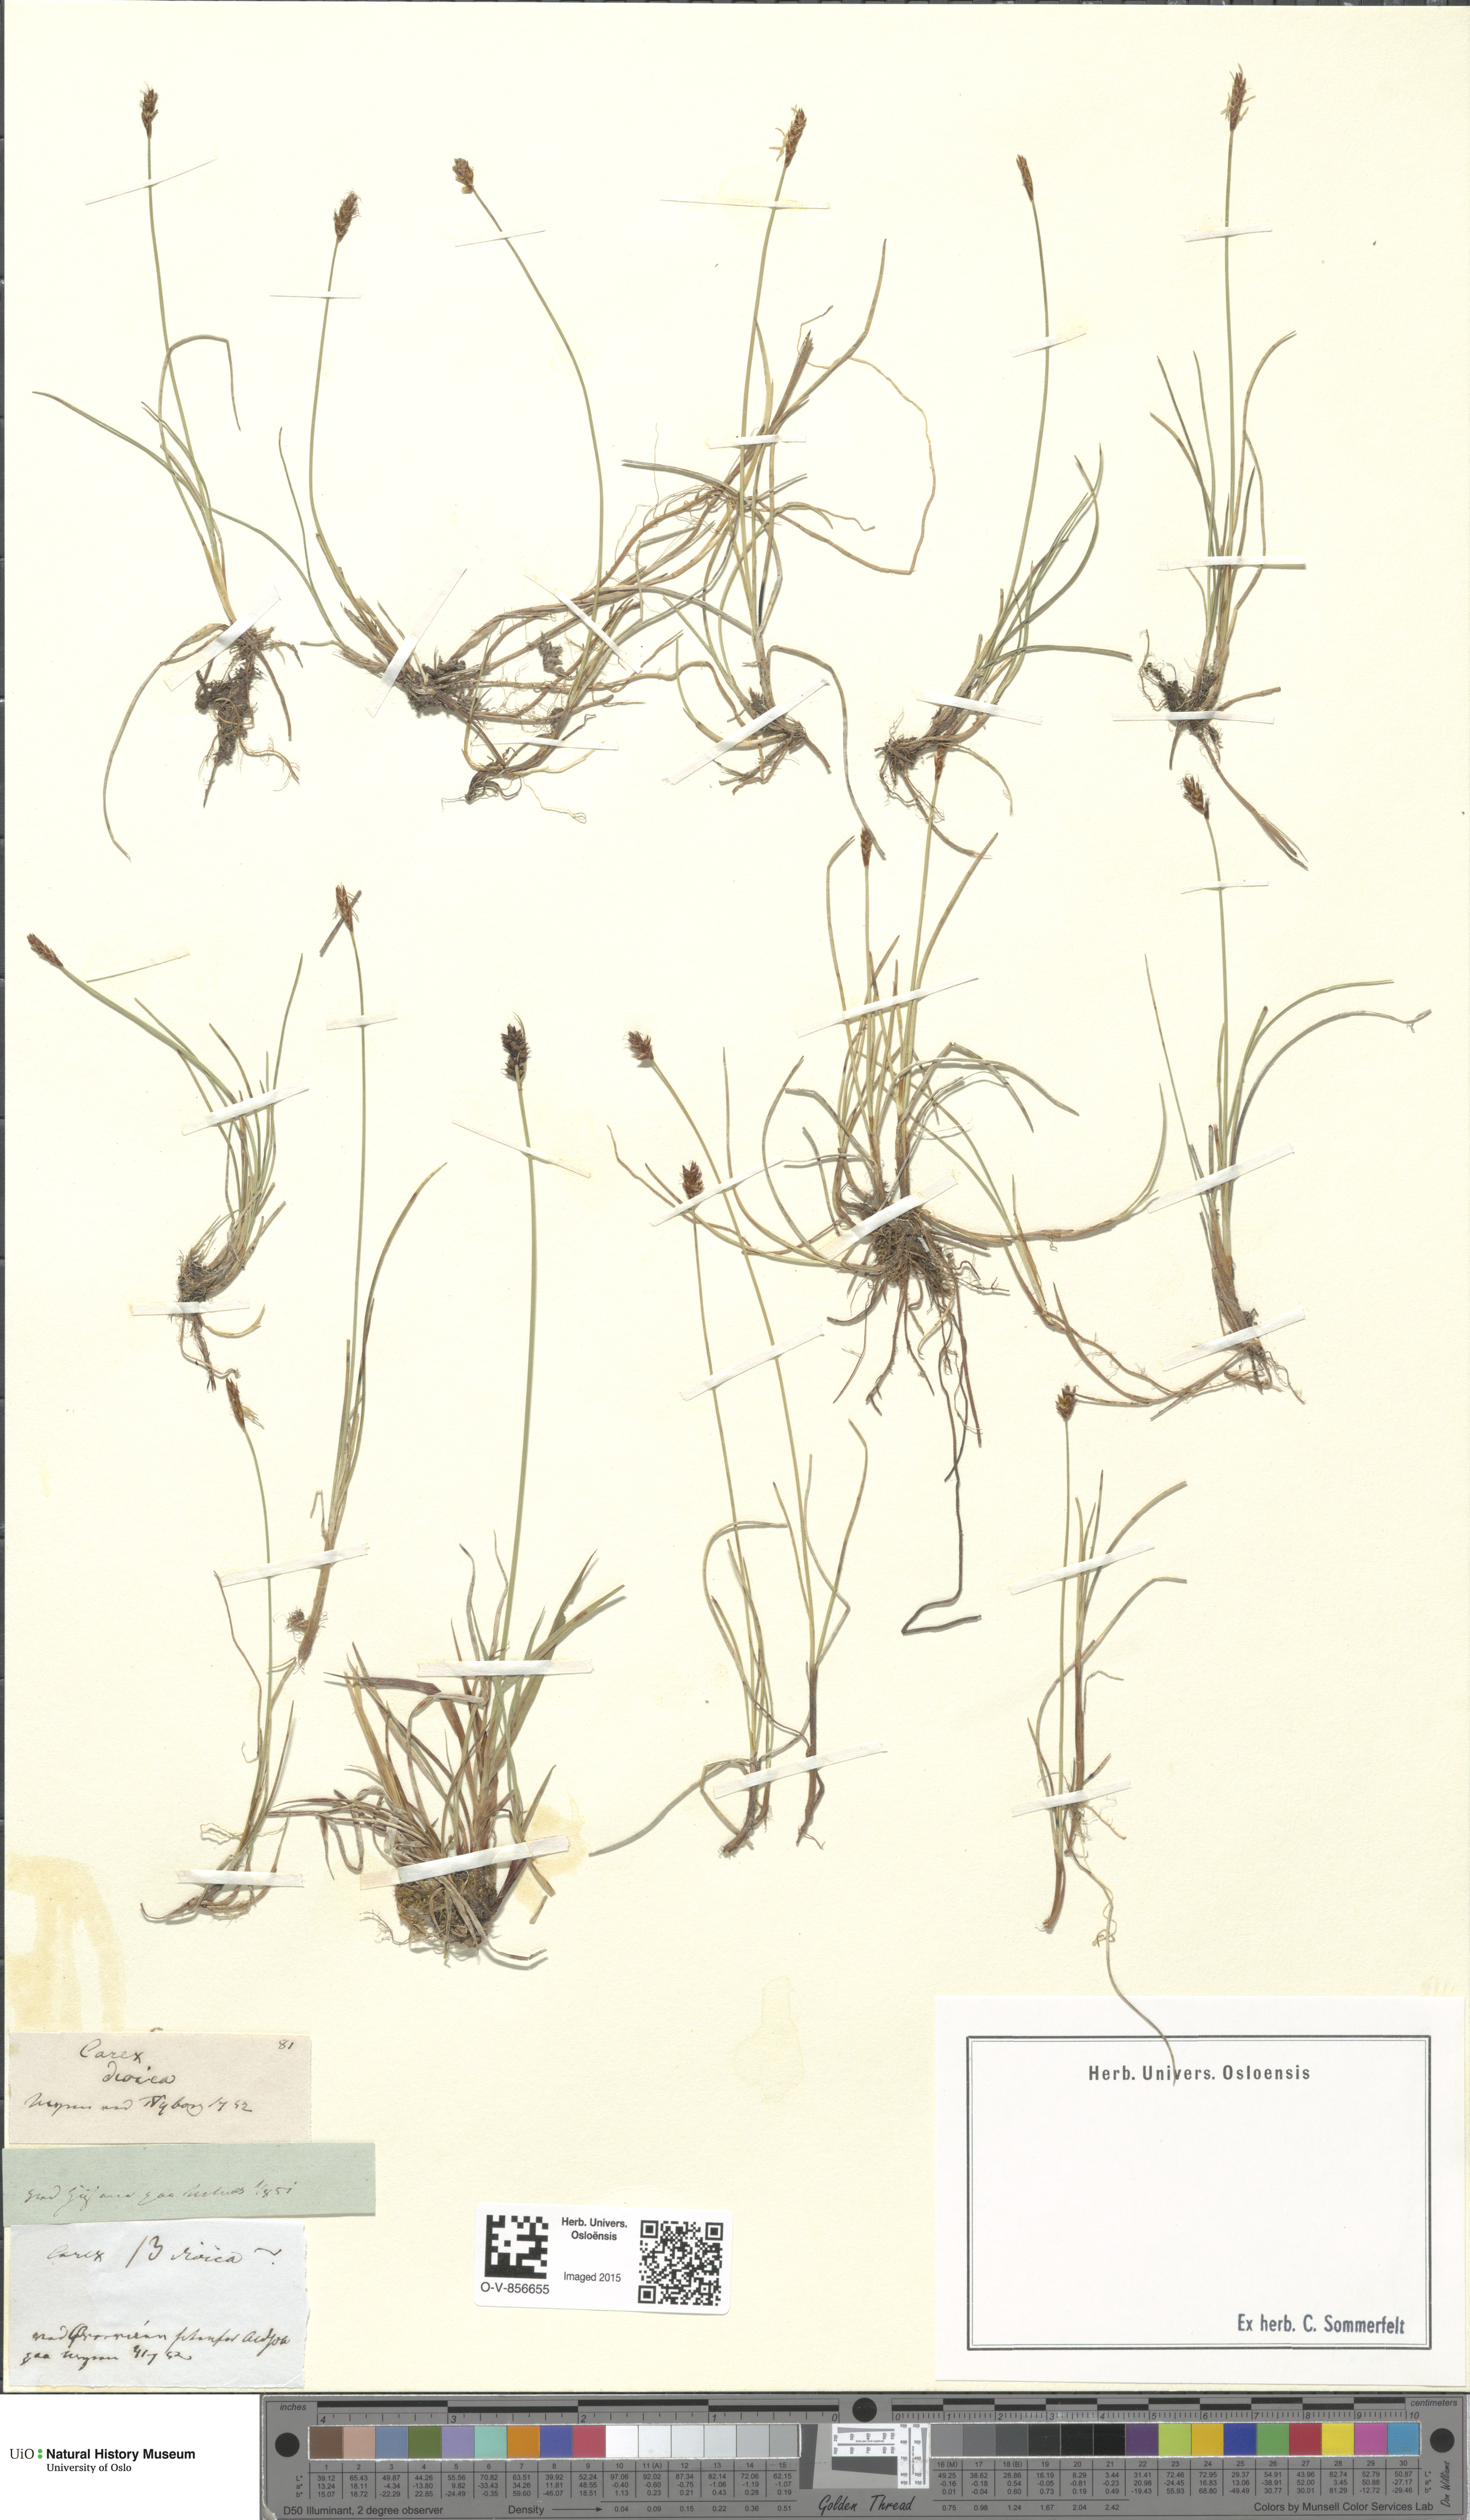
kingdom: Plantae
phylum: Tracheophyta
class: Liliopsida
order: Poales
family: Cyperaceae
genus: Carex
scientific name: Carex dioica
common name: Dioecious sedge
